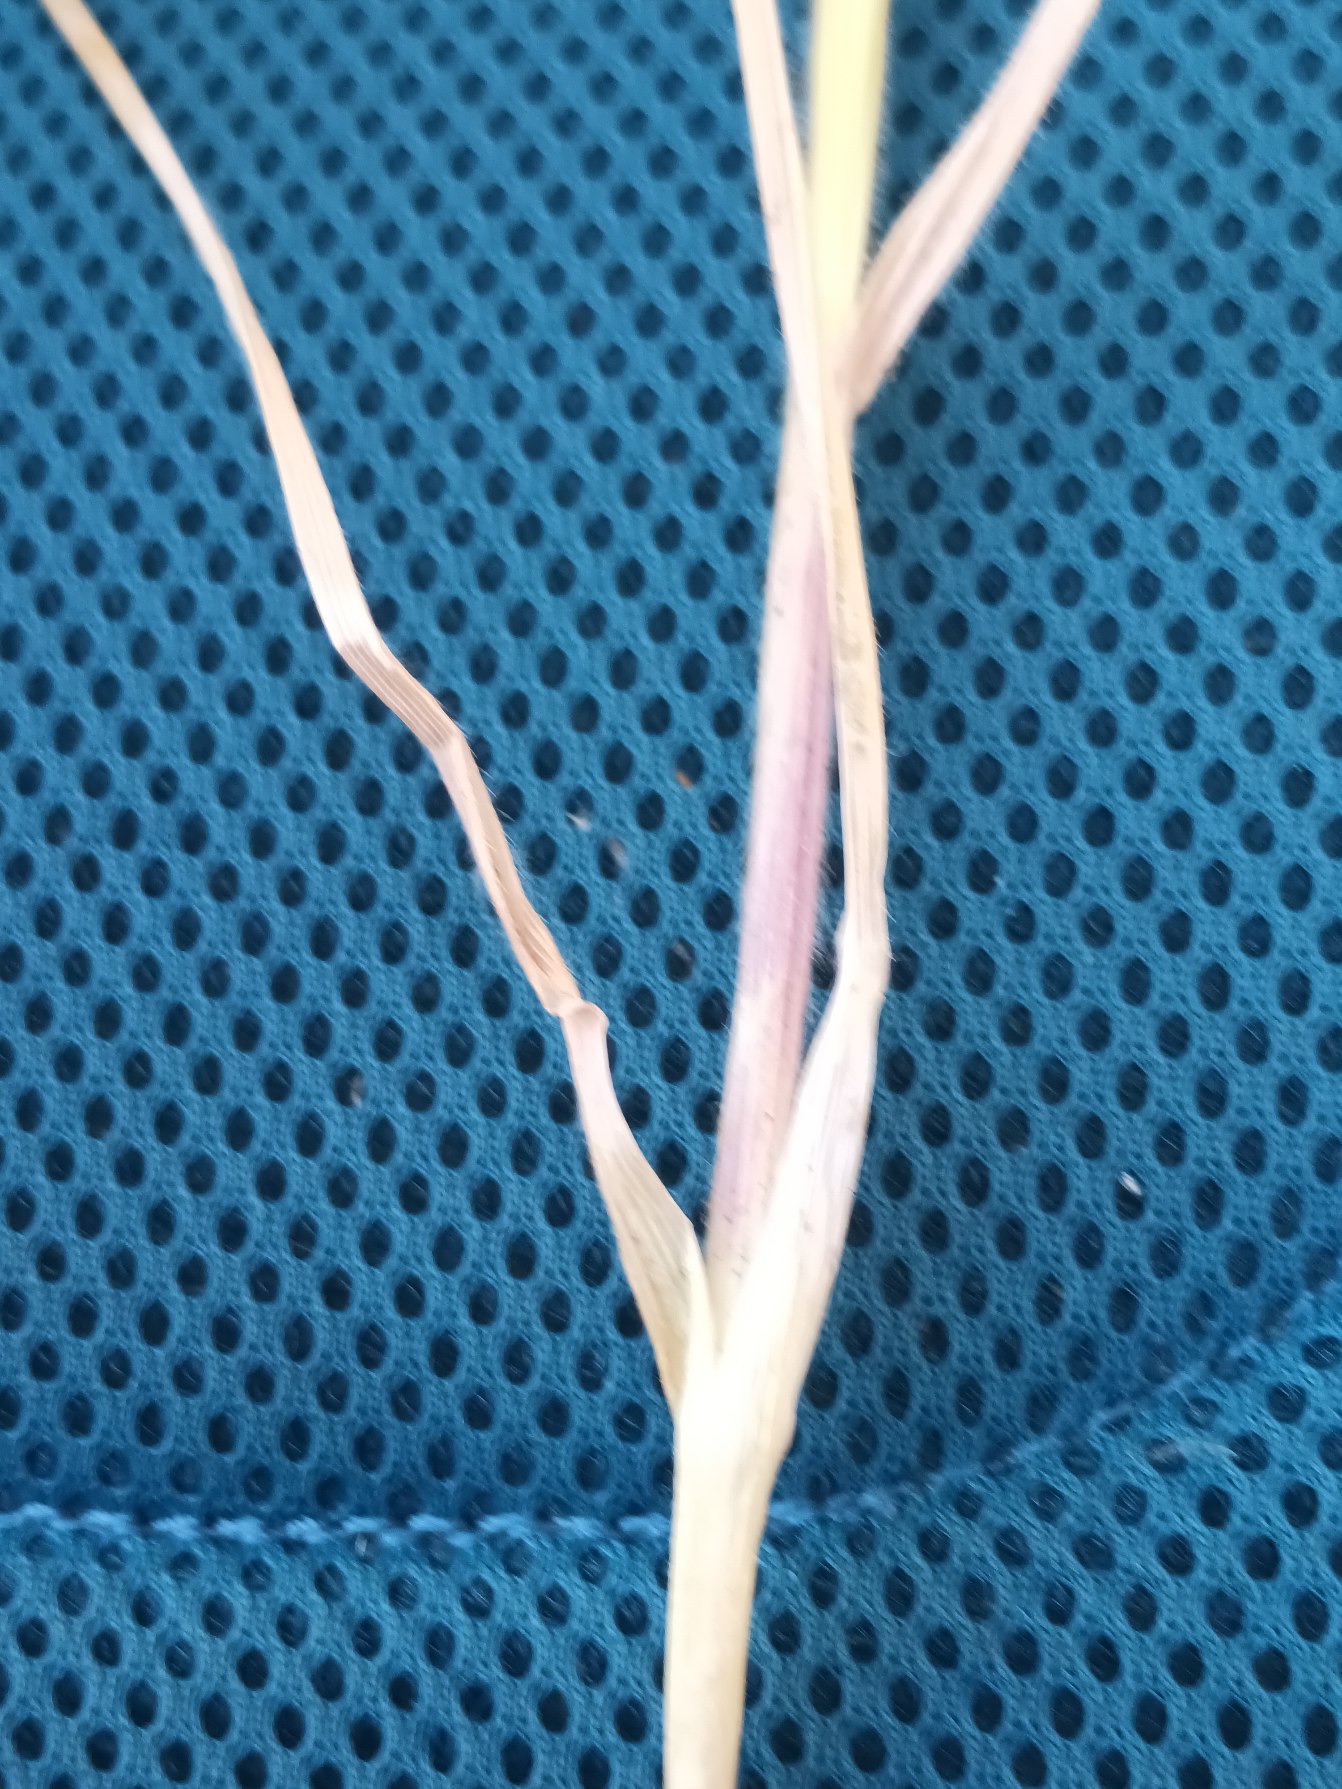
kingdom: Plantae
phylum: Tracheophyta
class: Liliopsida
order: Poales
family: Poaceae
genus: Avenula
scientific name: Avenula pubescens
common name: Dunet havre
